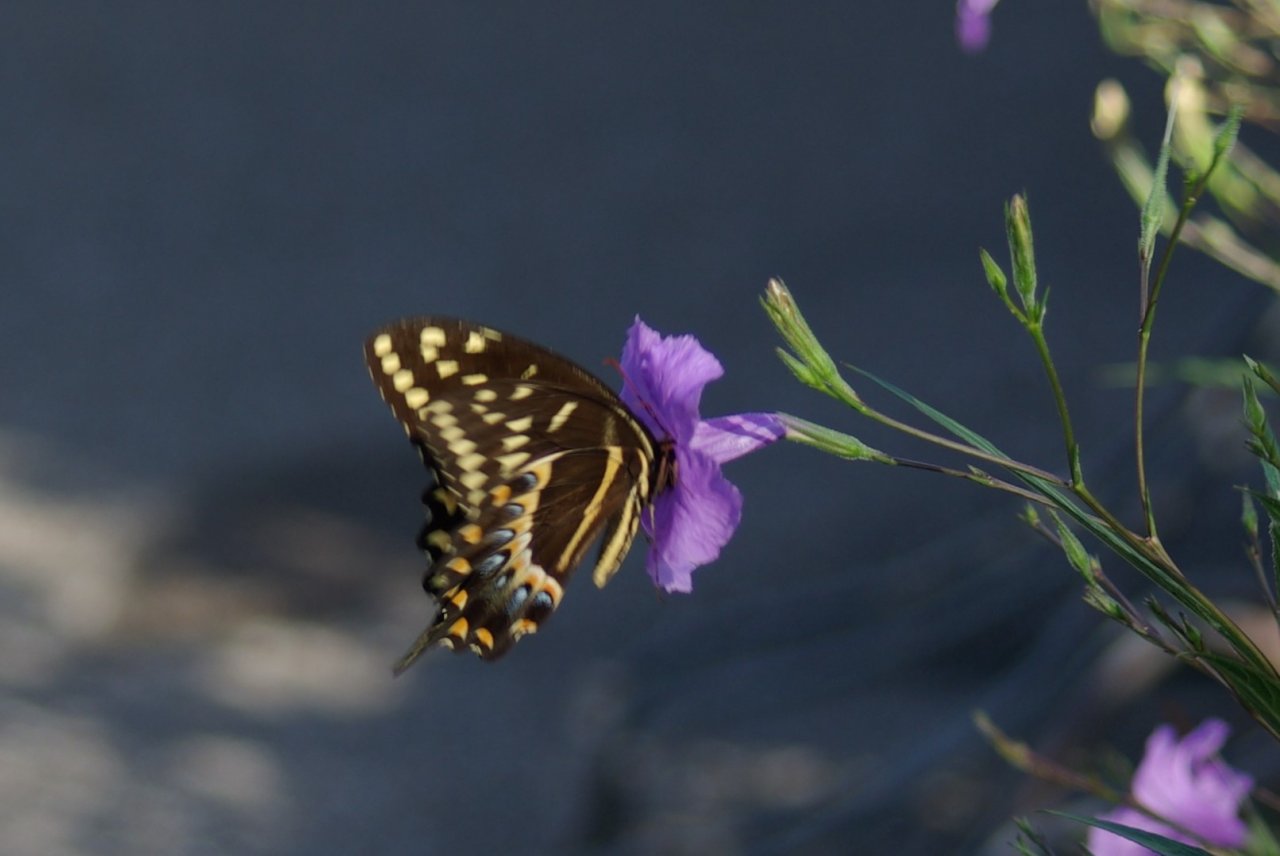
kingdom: Animalia
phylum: Arthropoda
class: Insecta
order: Lepidoptera
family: Papilionidae
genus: Pterourus
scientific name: Pterourus palamedes
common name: Palamedes Swallowtail
